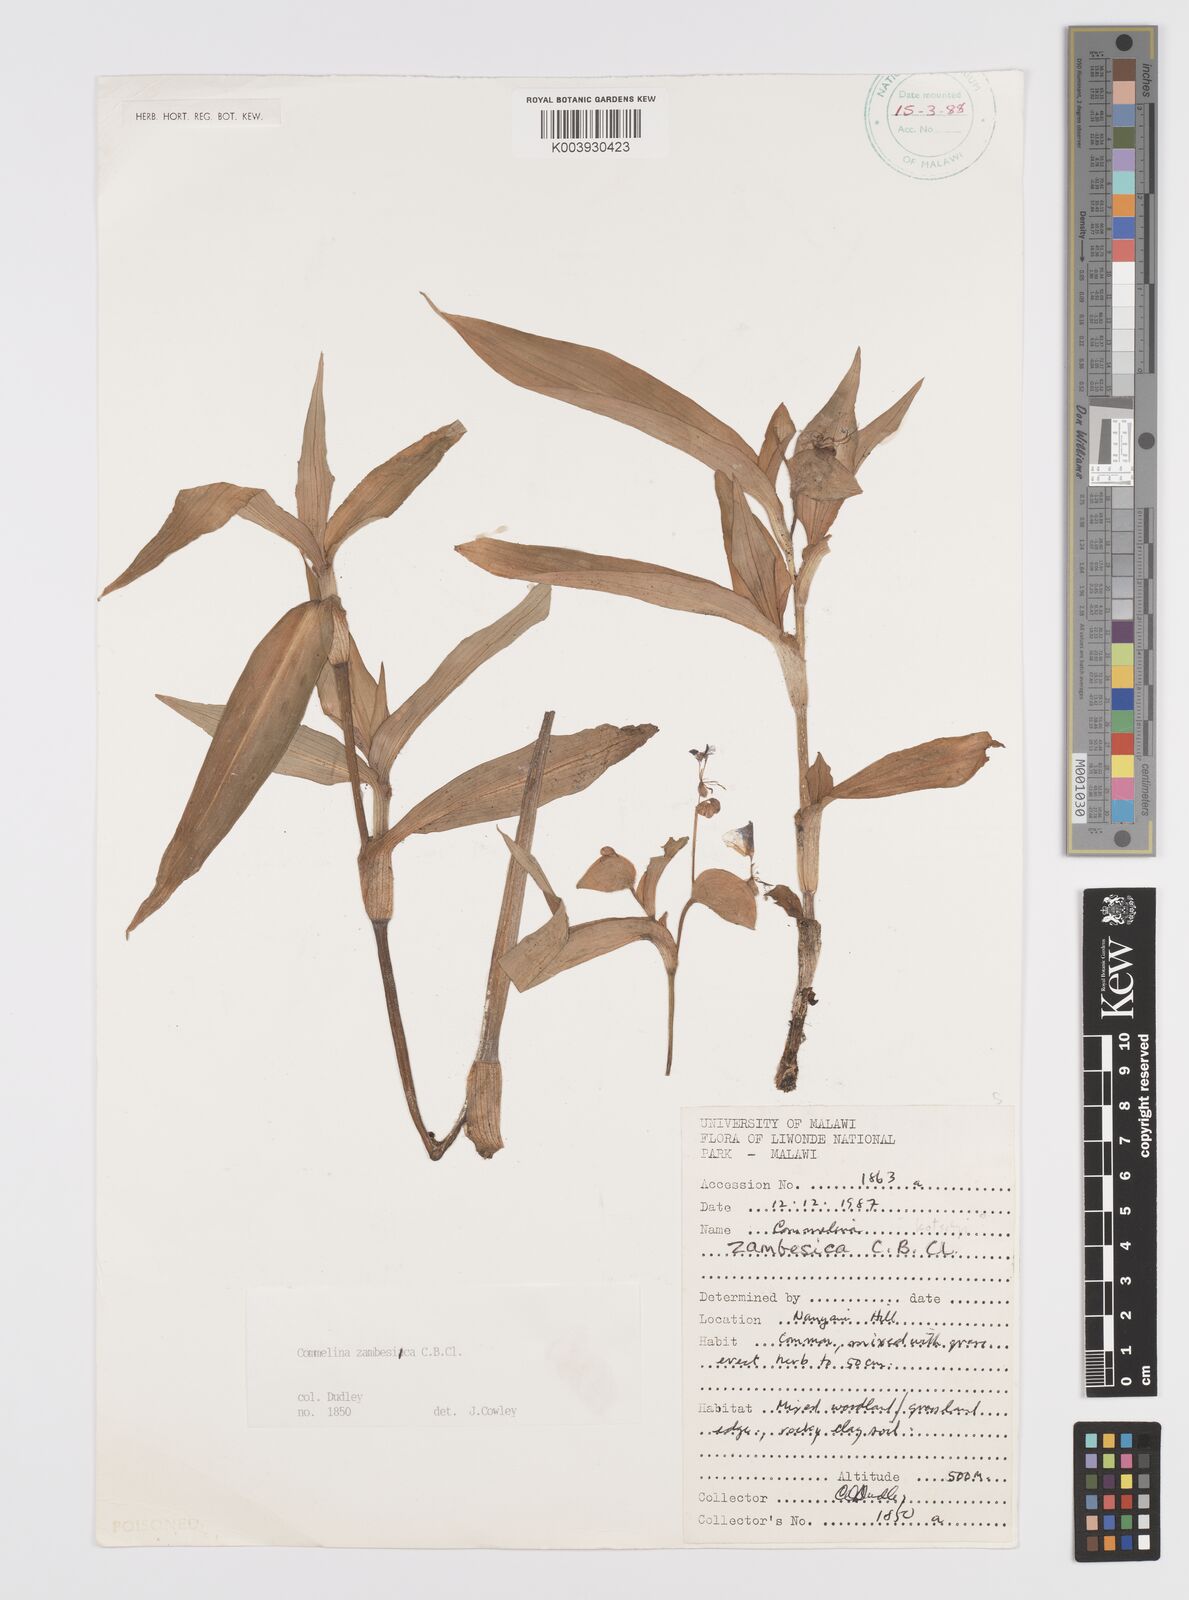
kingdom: Plantae
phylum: Tracheophyta
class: Liliopsida
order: Commelinales
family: Commelinaceae
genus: Commelina
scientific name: Commelina zambesica
